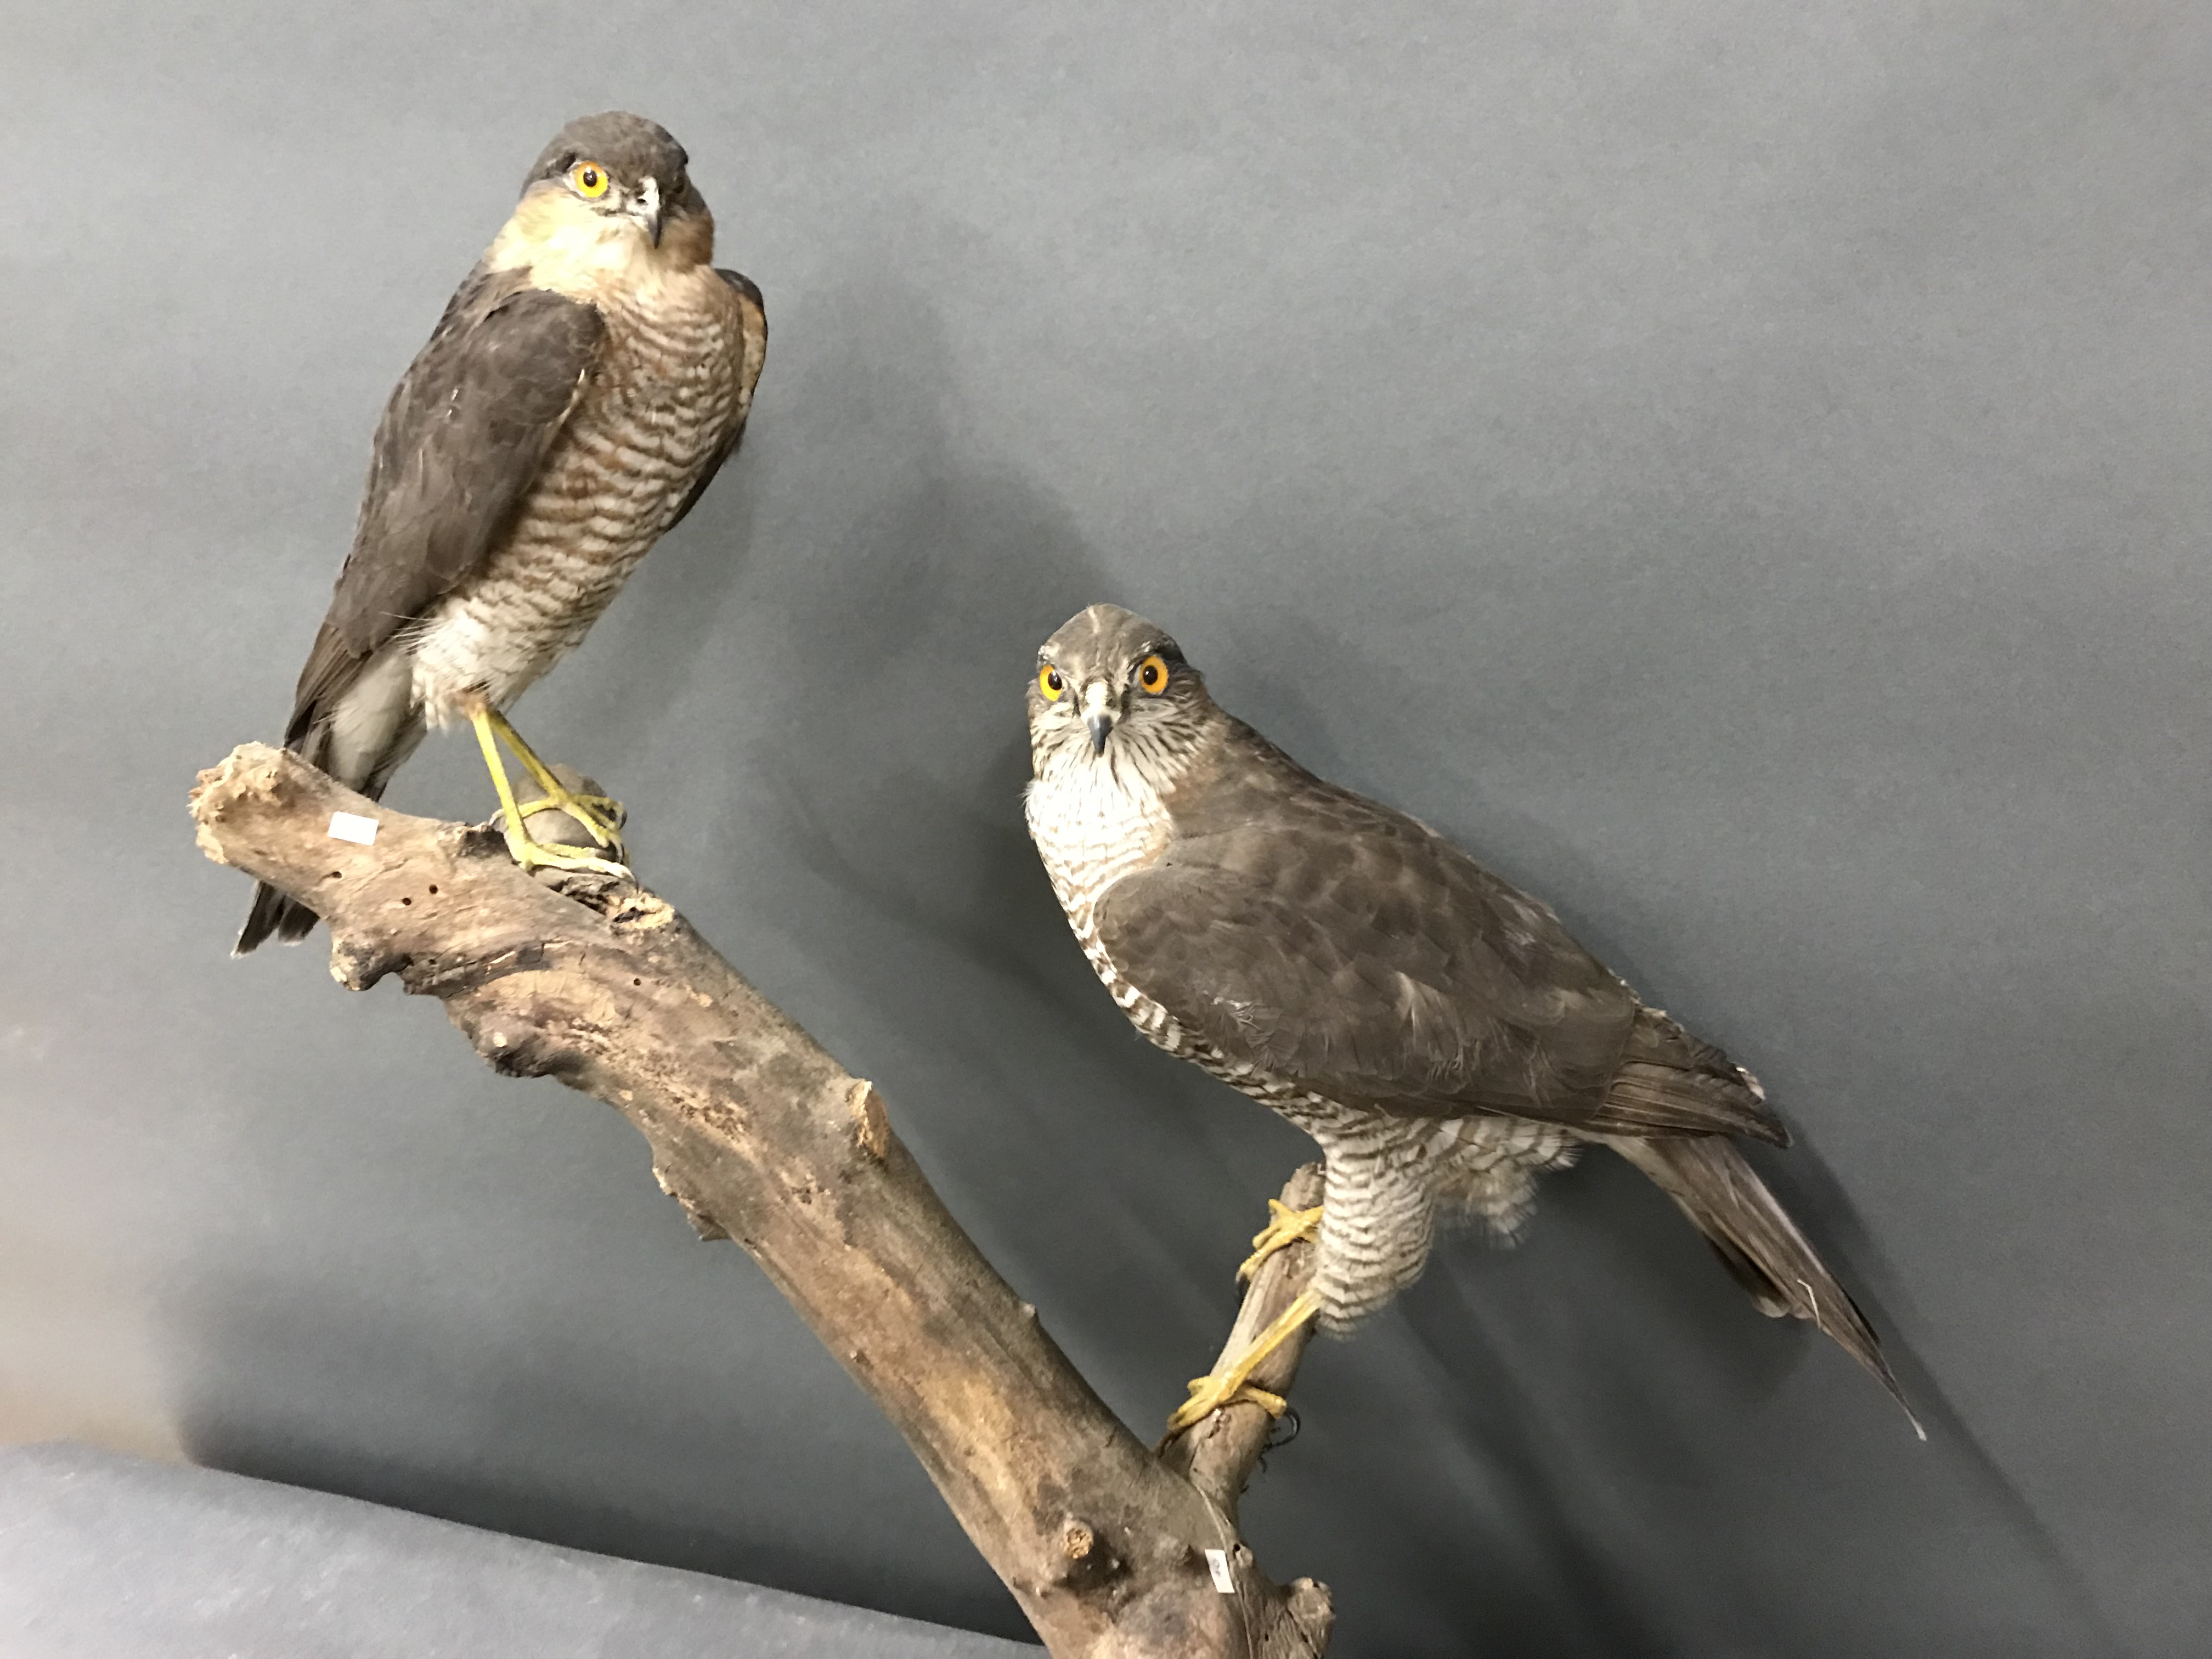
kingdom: Animalia
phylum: Chordata
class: Aves
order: Accipitriformes
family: Accipitridae
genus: Accipiter
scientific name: Accipiter nisus
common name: Eurasian sparrowhawk
